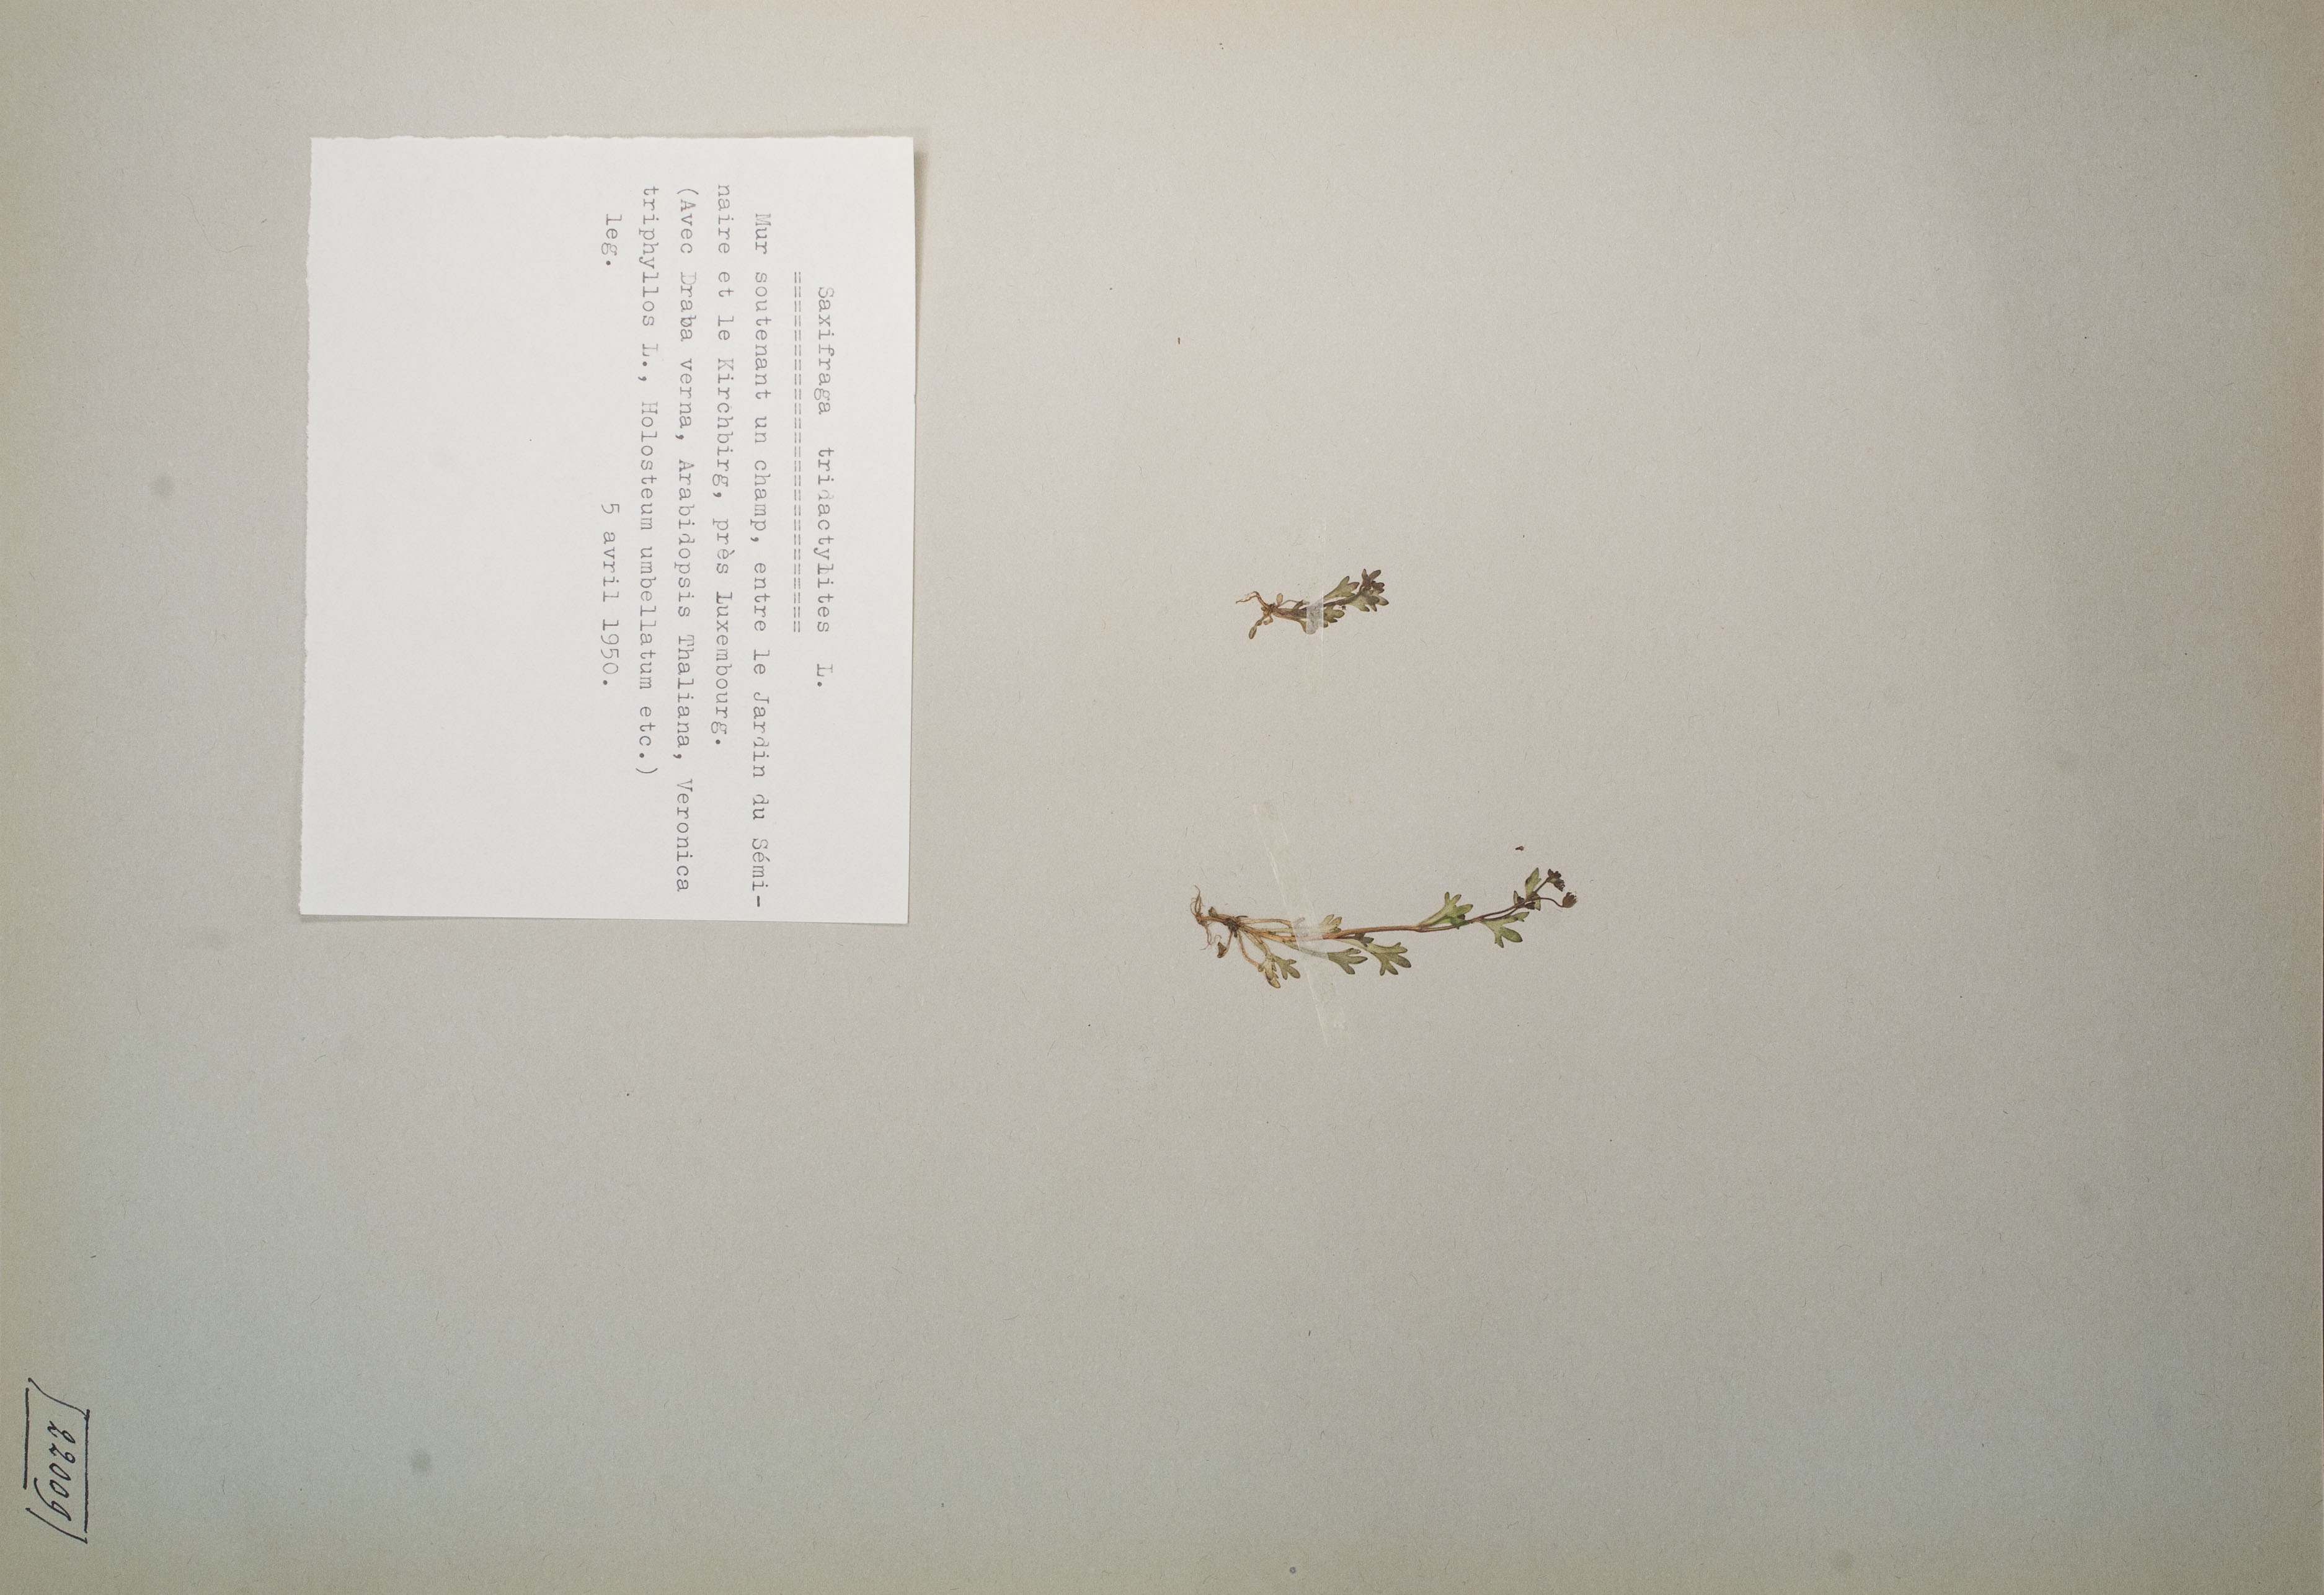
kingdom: Plantae
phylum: Tracheophyta
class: Magnoliopsida
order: Saxifragales
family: Saxifragaceae
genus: Saxifraga
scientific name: Saxifraga tridactylites
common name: Rue-leaved saxifrage
